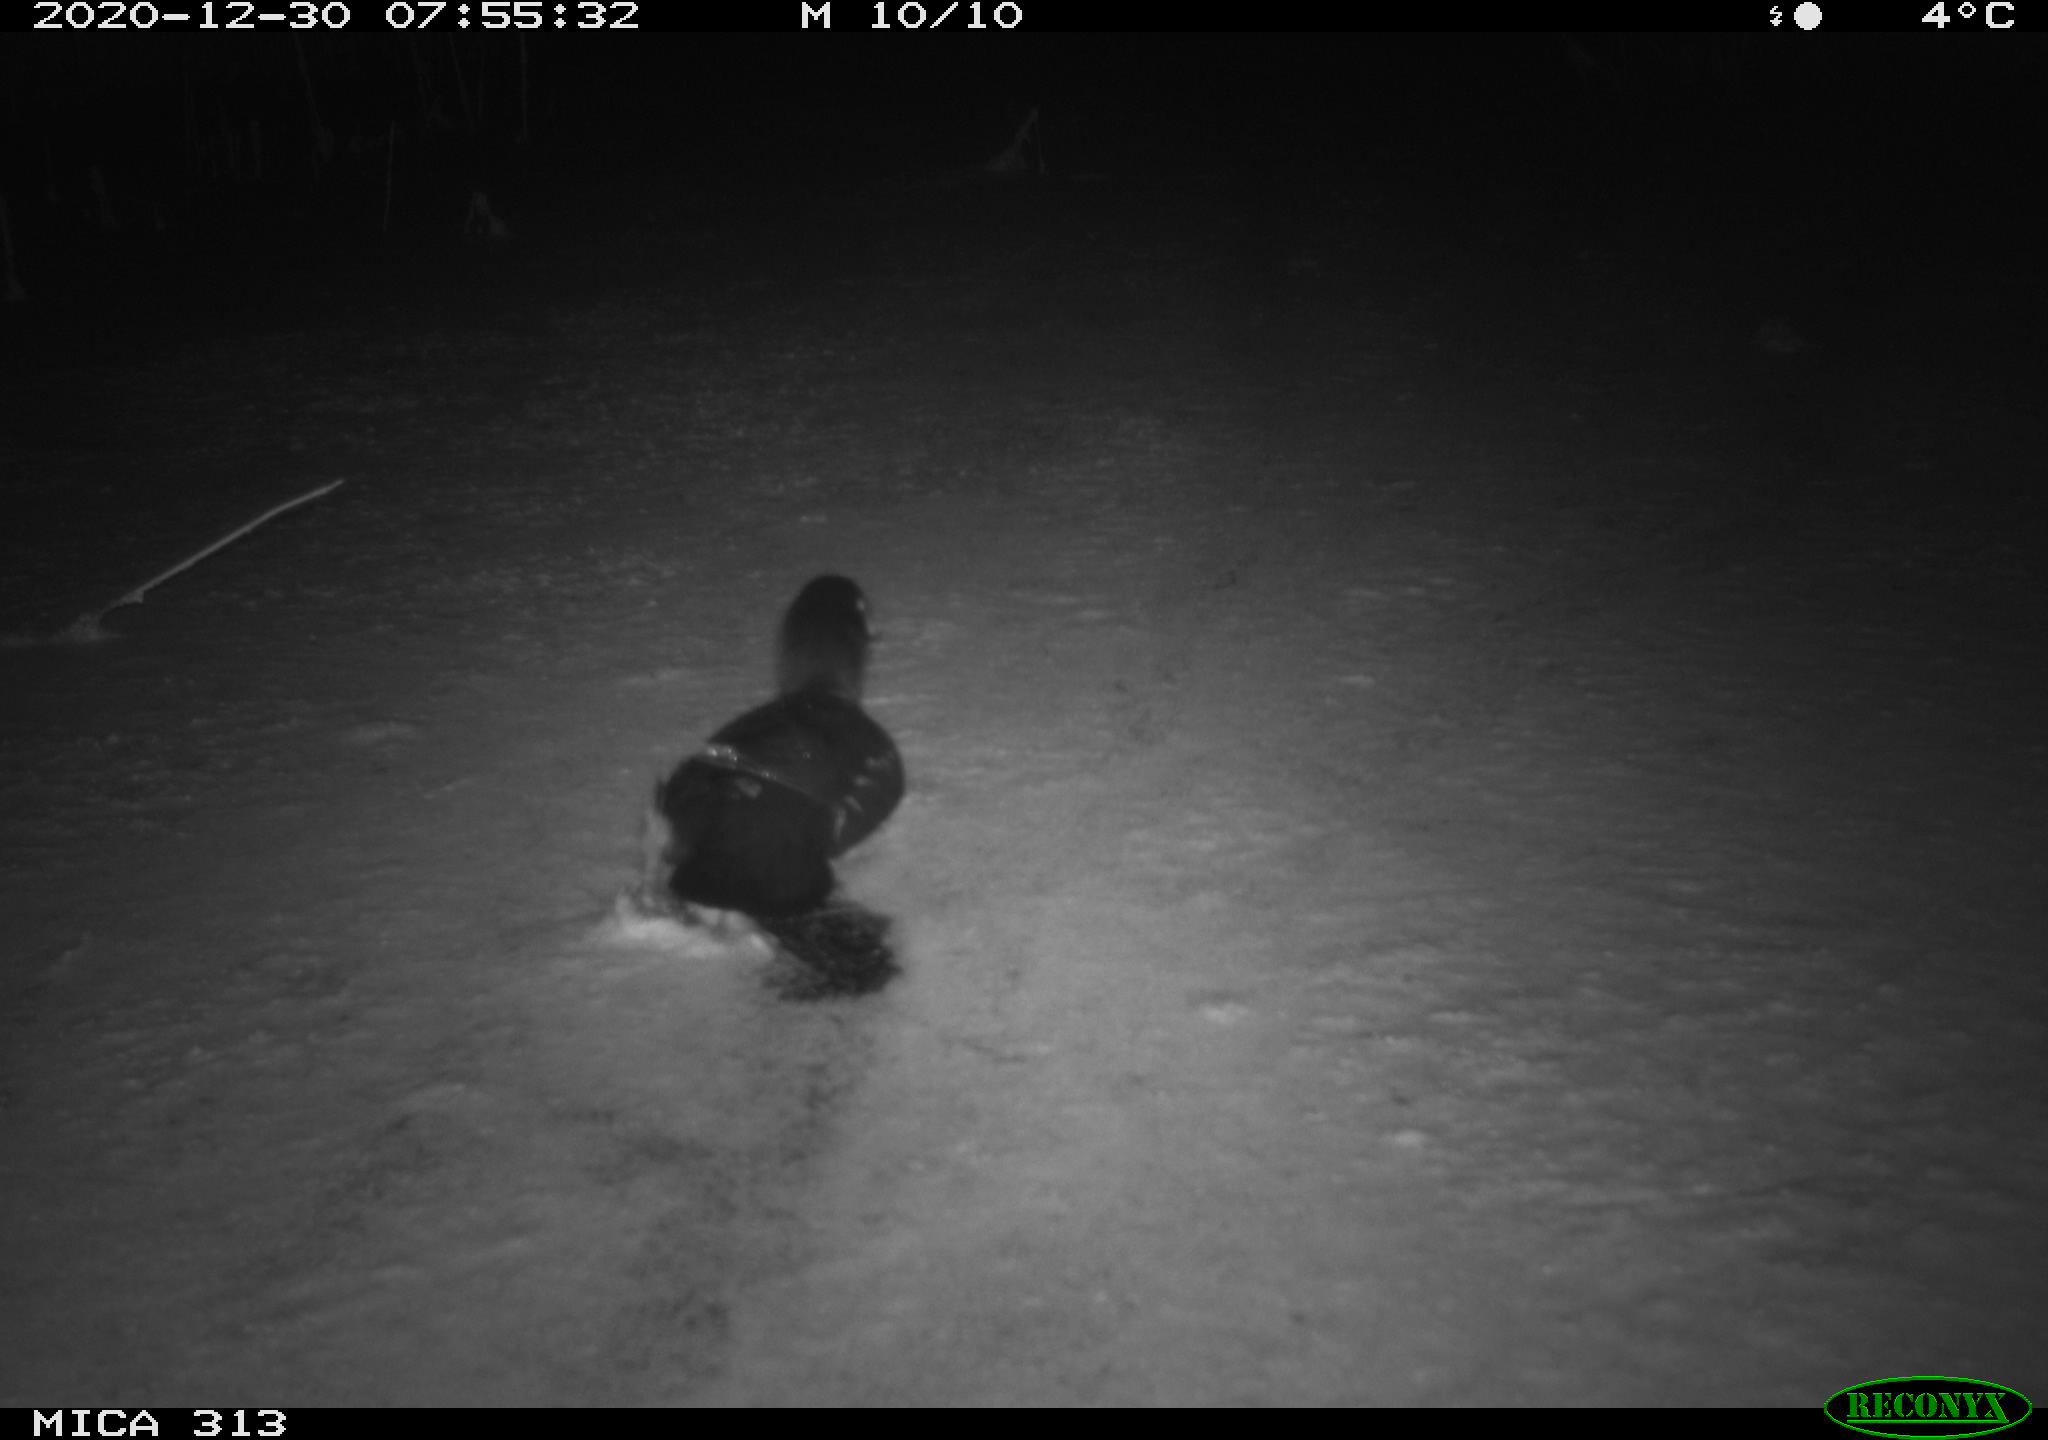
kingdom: Animalia
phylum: Chordata
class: Aves
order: Gruiformes
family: Rallidae
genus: Gallinula
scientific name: Gallinula chloropus
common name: Common moorhen
